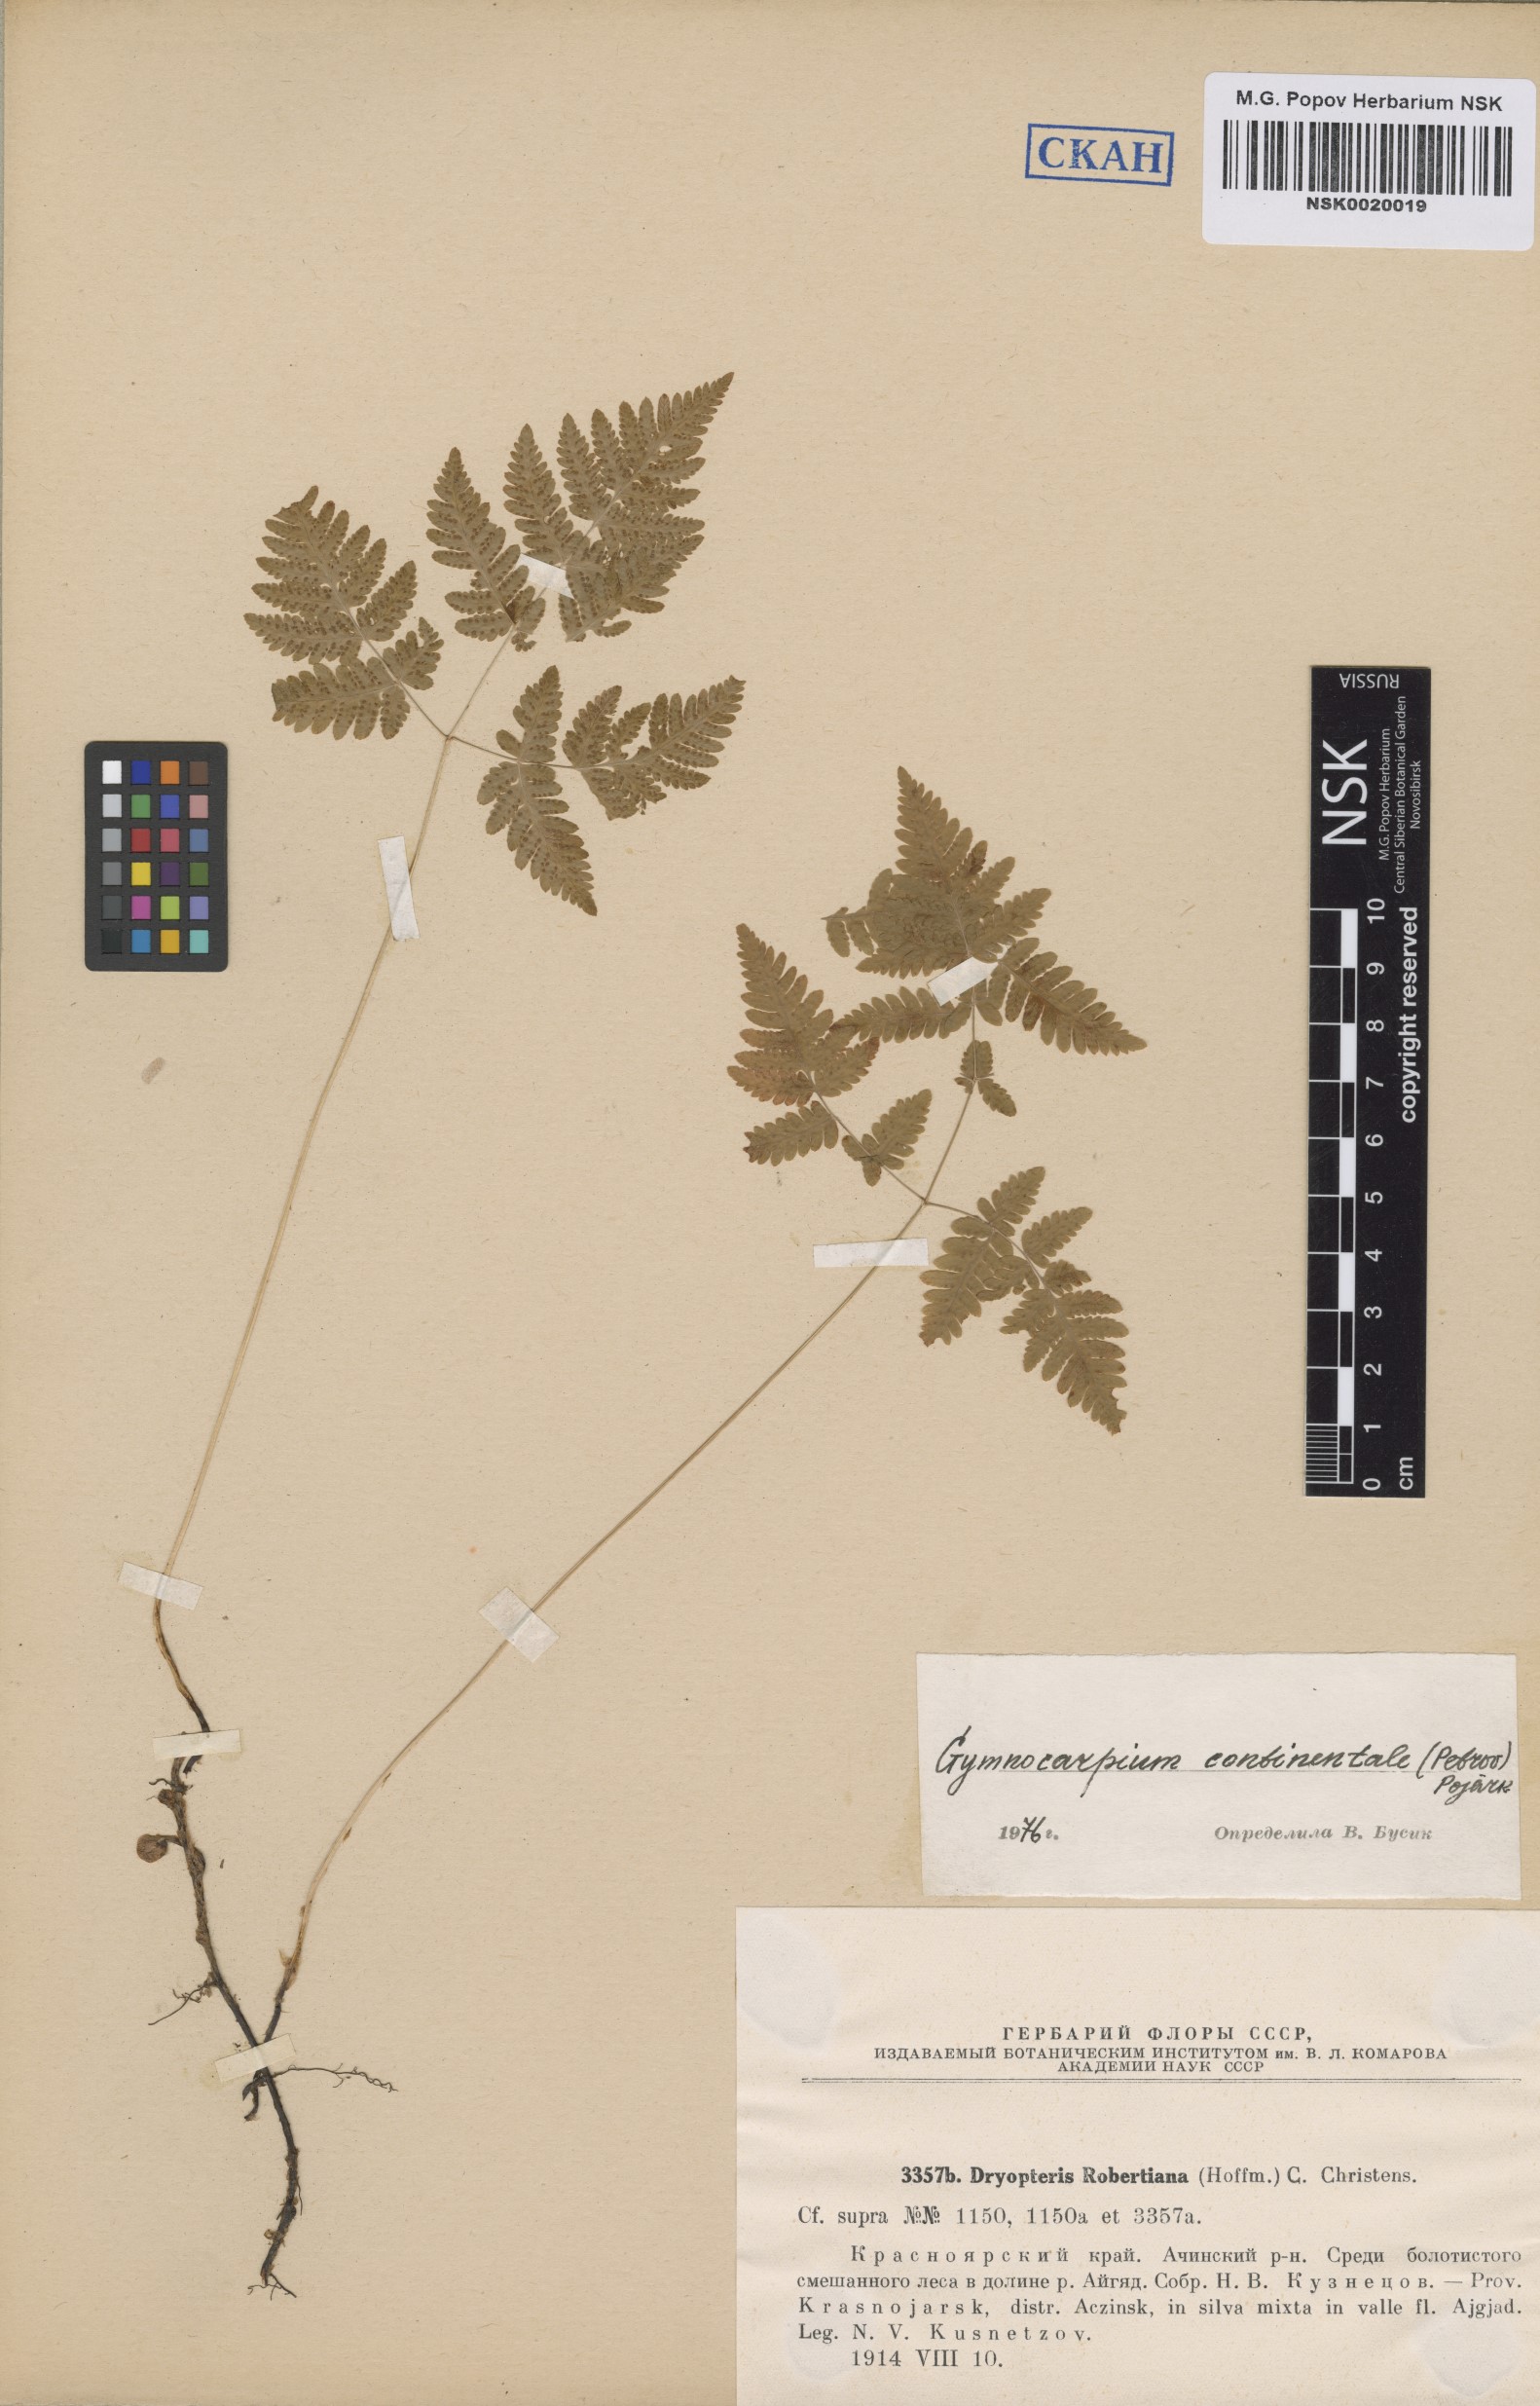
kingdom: Plantae
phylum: Tracheophyta
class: Polypodiopsida
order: Polypodiales
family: Cystopteridaceae
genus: Gymnocarpium
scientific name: Gymnocarpium continentale
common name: Asian oak fern
